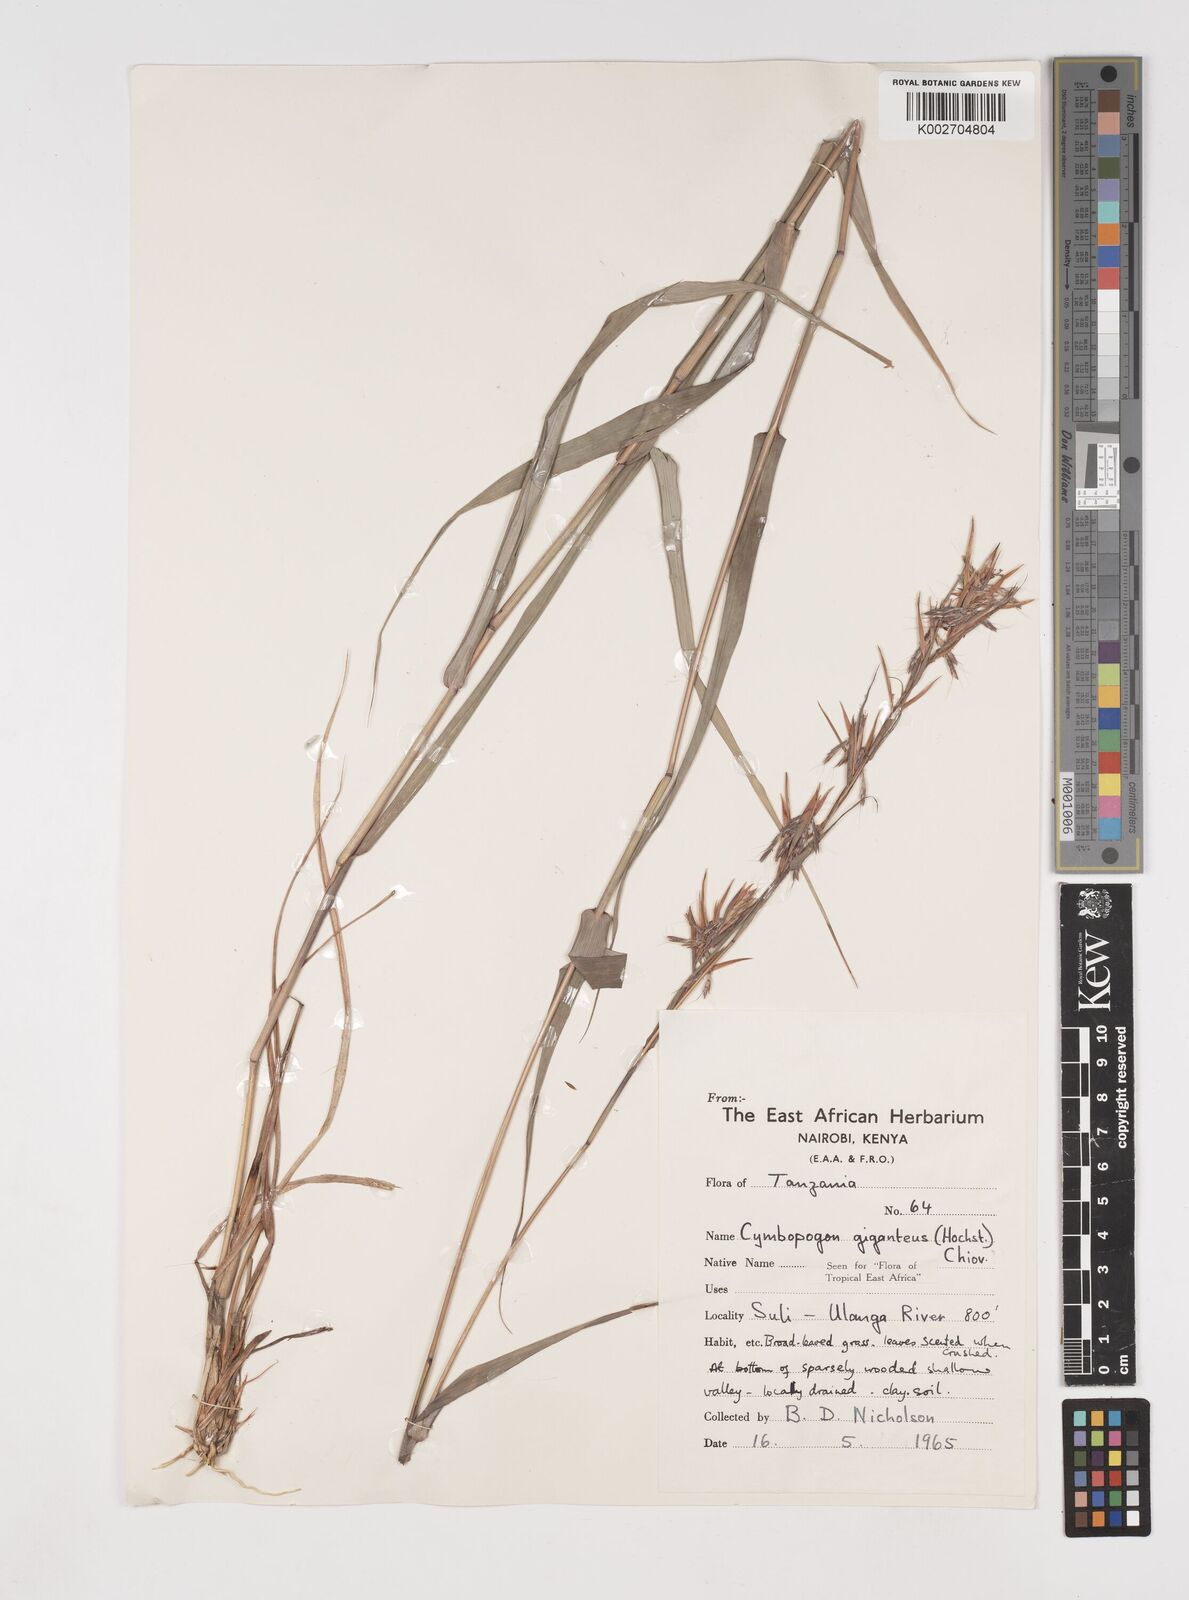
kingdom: Plantae
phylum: Tracheophyta
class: Liliopsida
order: Poales
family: Poaceae
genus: Cymbopogon
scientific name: Cymbopogon giganteus
